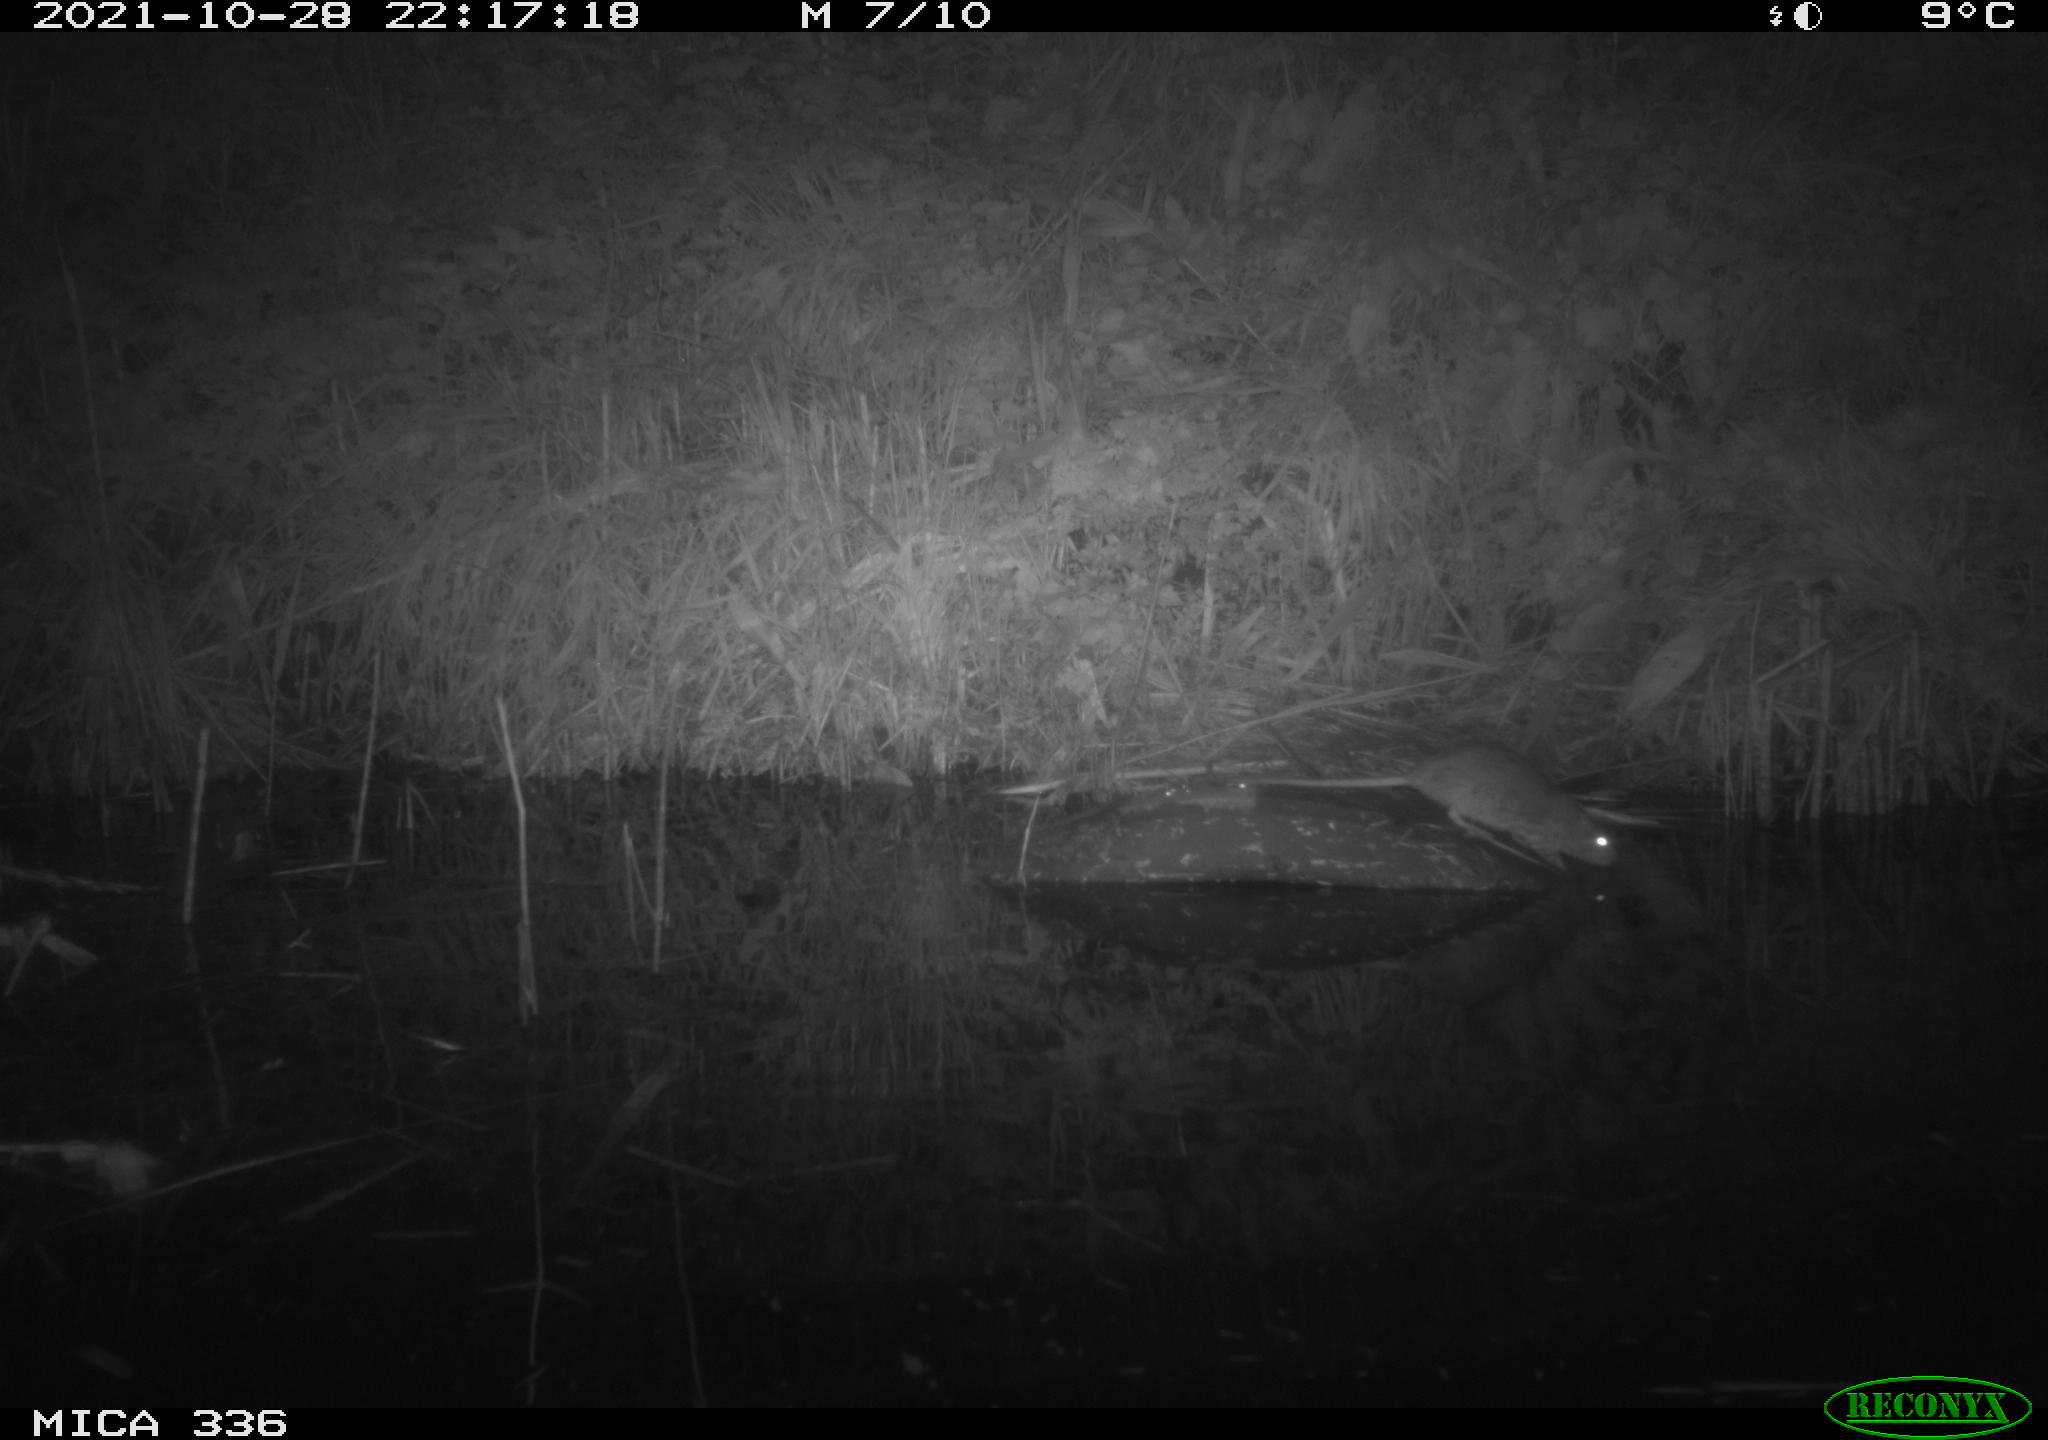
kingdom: Animalia
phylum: Chordata
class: Mammalia
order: Rodentia
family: Muridae
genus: Rattus
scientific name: Rattus norvegicus
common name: Brown rat
